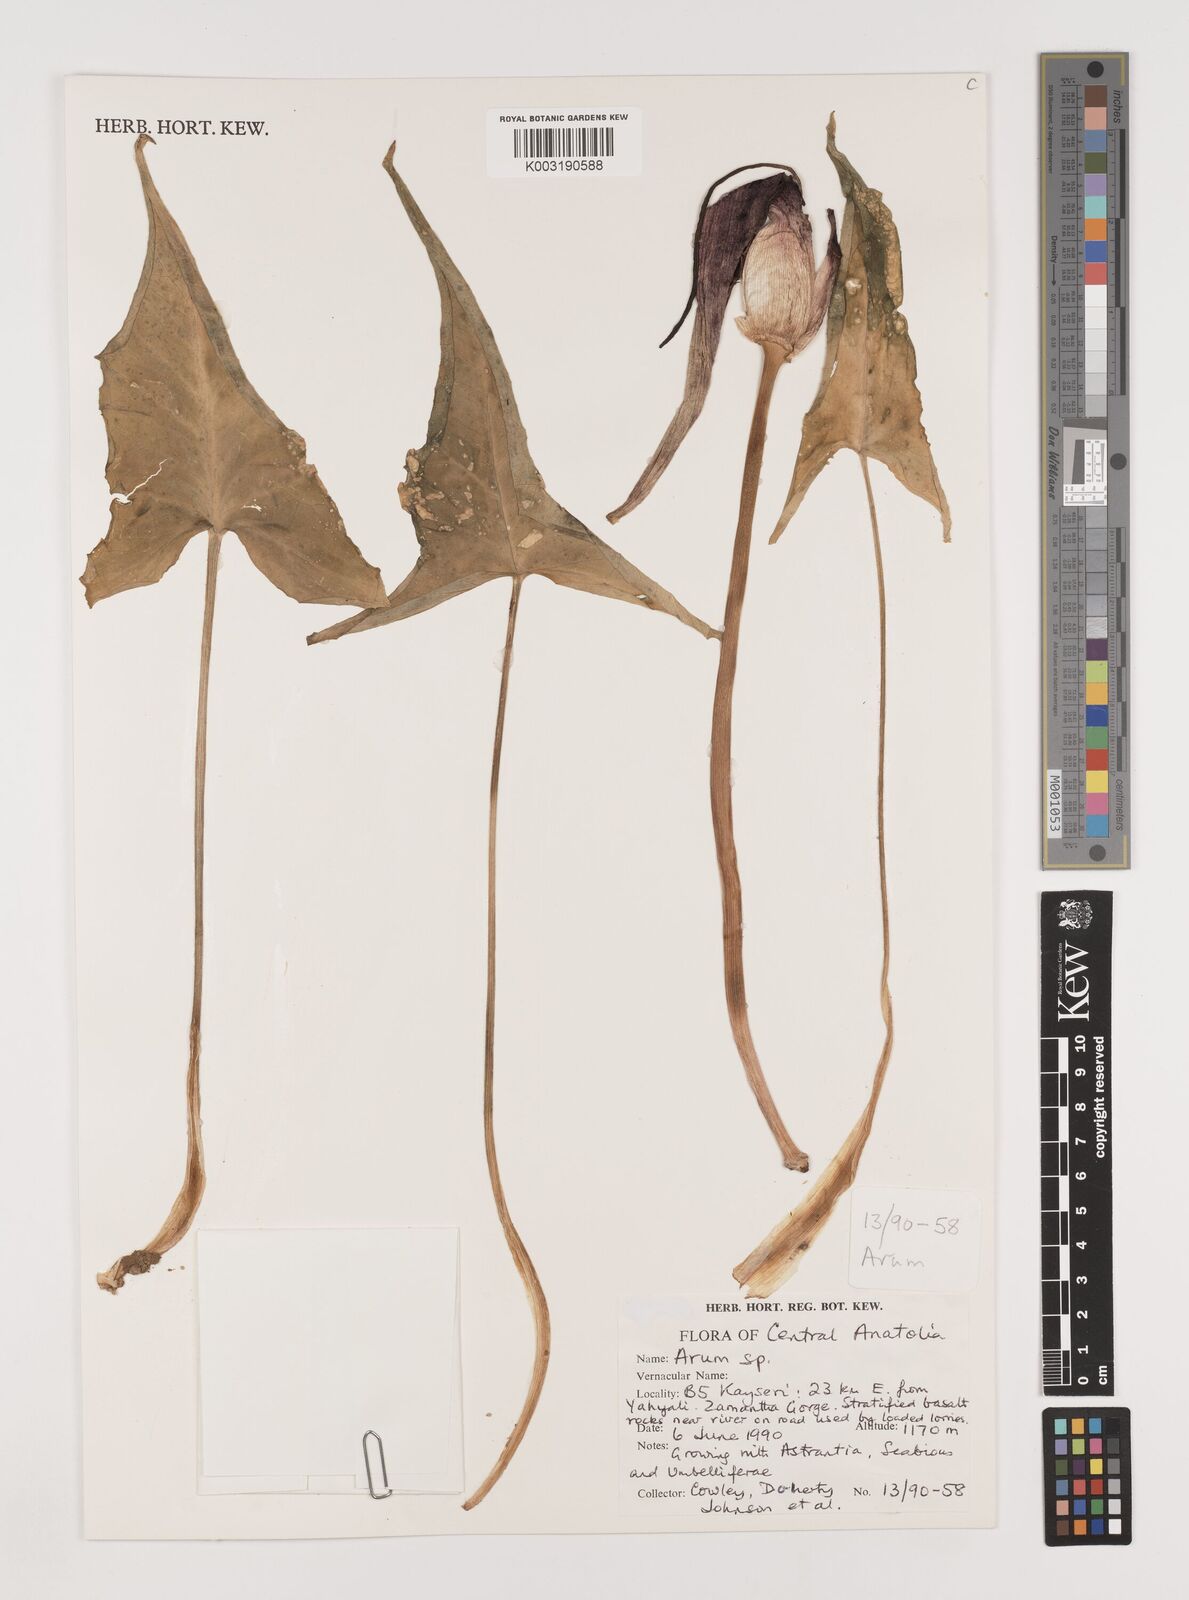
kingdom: Plantae
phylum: Tracheophyta
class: Liliopsida
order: Alismatales
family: Araceae
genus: Arum
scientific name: Arum
